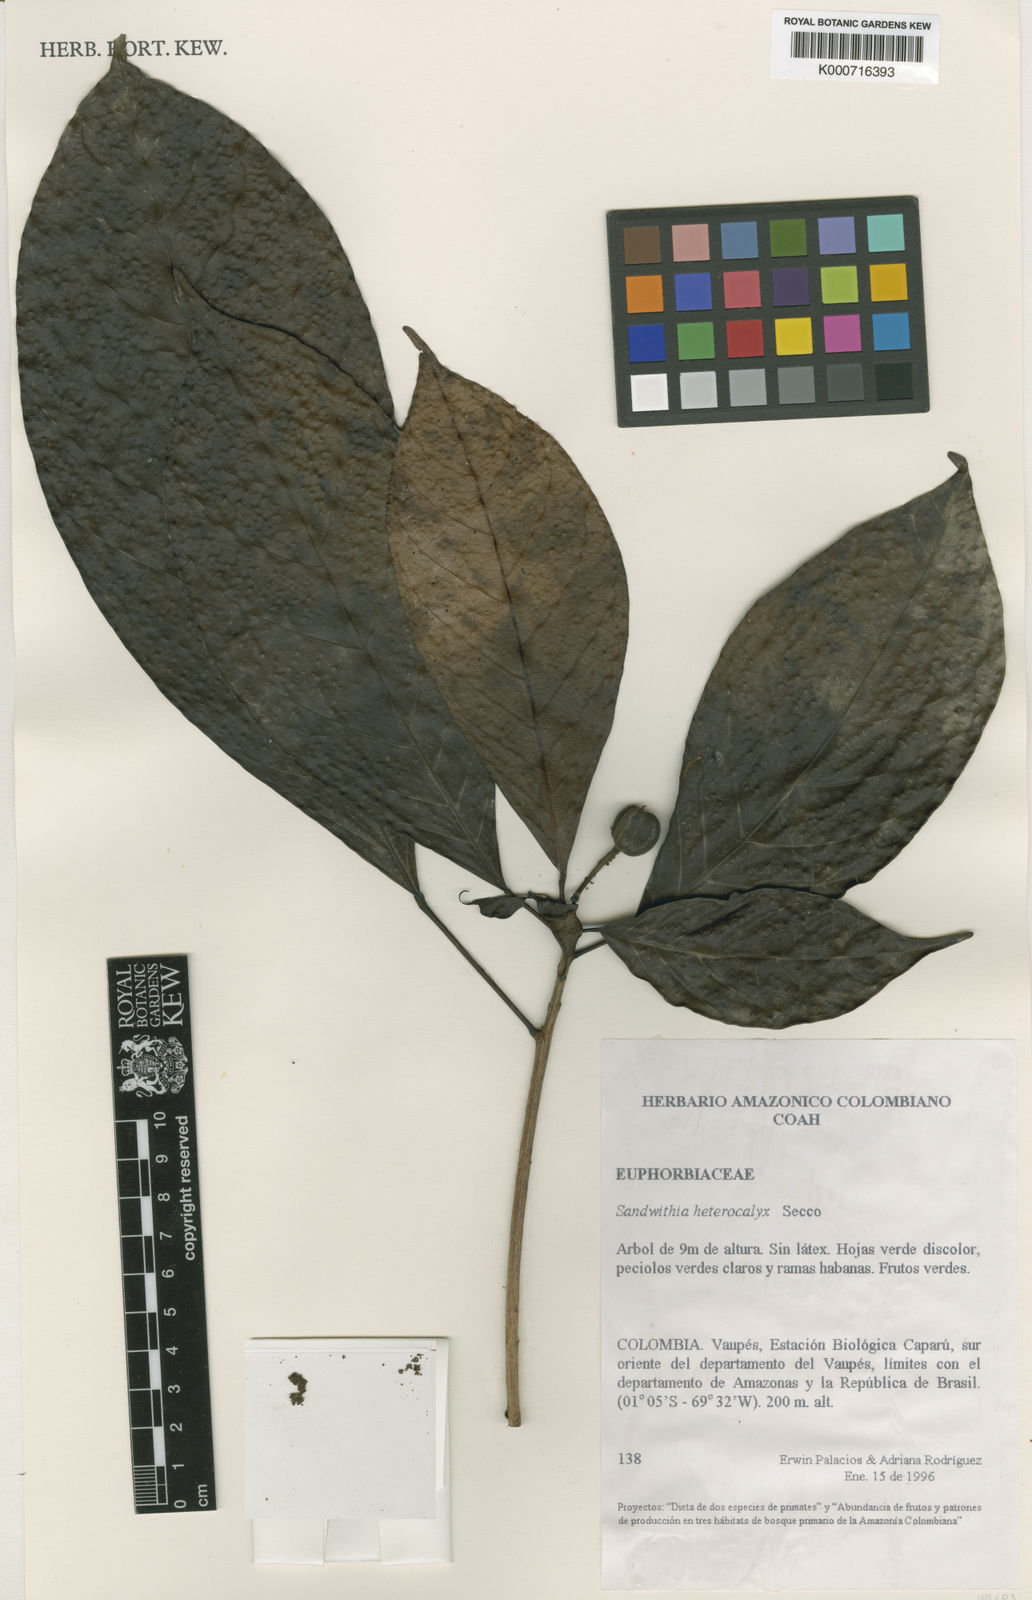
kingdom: Plantae
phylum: Tracheophyta
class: Magnoliopsida
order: Malpighiales
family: Euphorbiaceae
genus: Sagotia
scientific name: Sagotia heterocalyx
